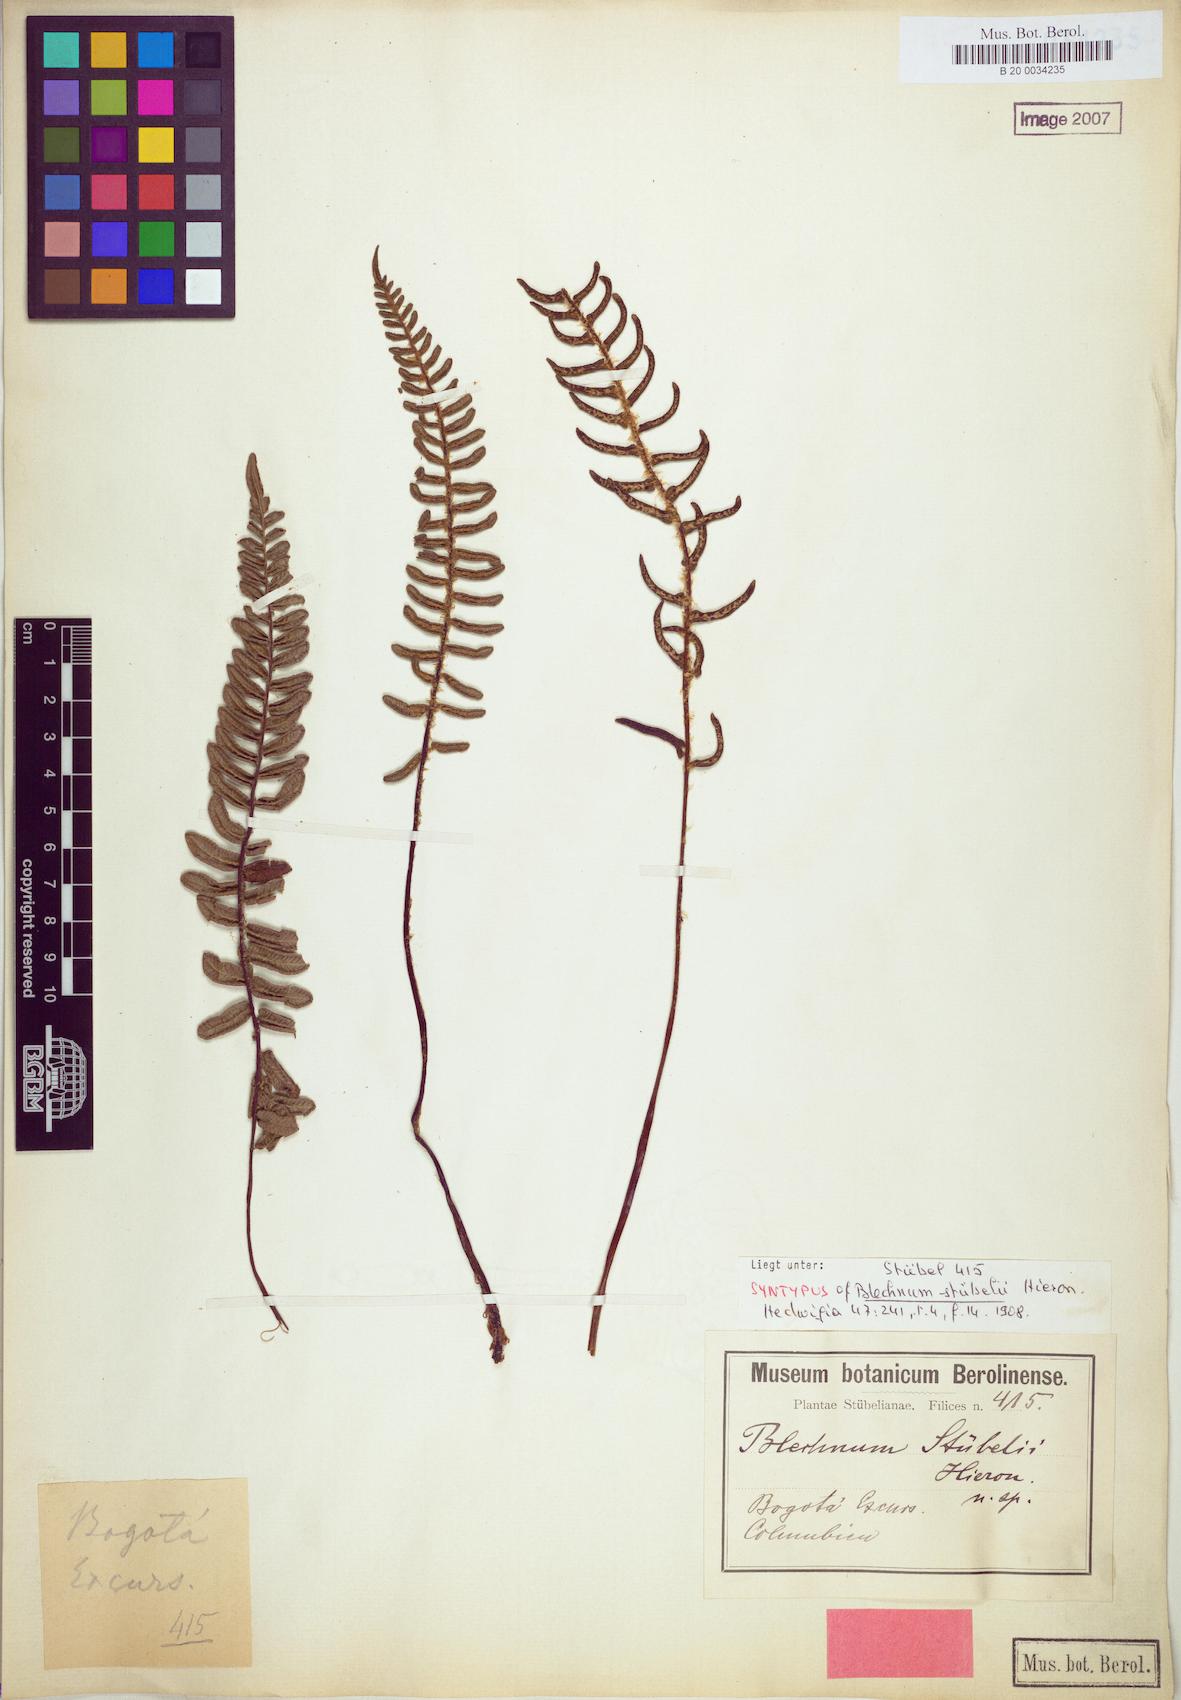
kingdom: Plantae
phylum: Tracheophyta
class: Polypodiopsida
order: Polypodiales
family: Blechnaceae
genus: Parablechnum
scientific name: Parablechnum stuebelii
